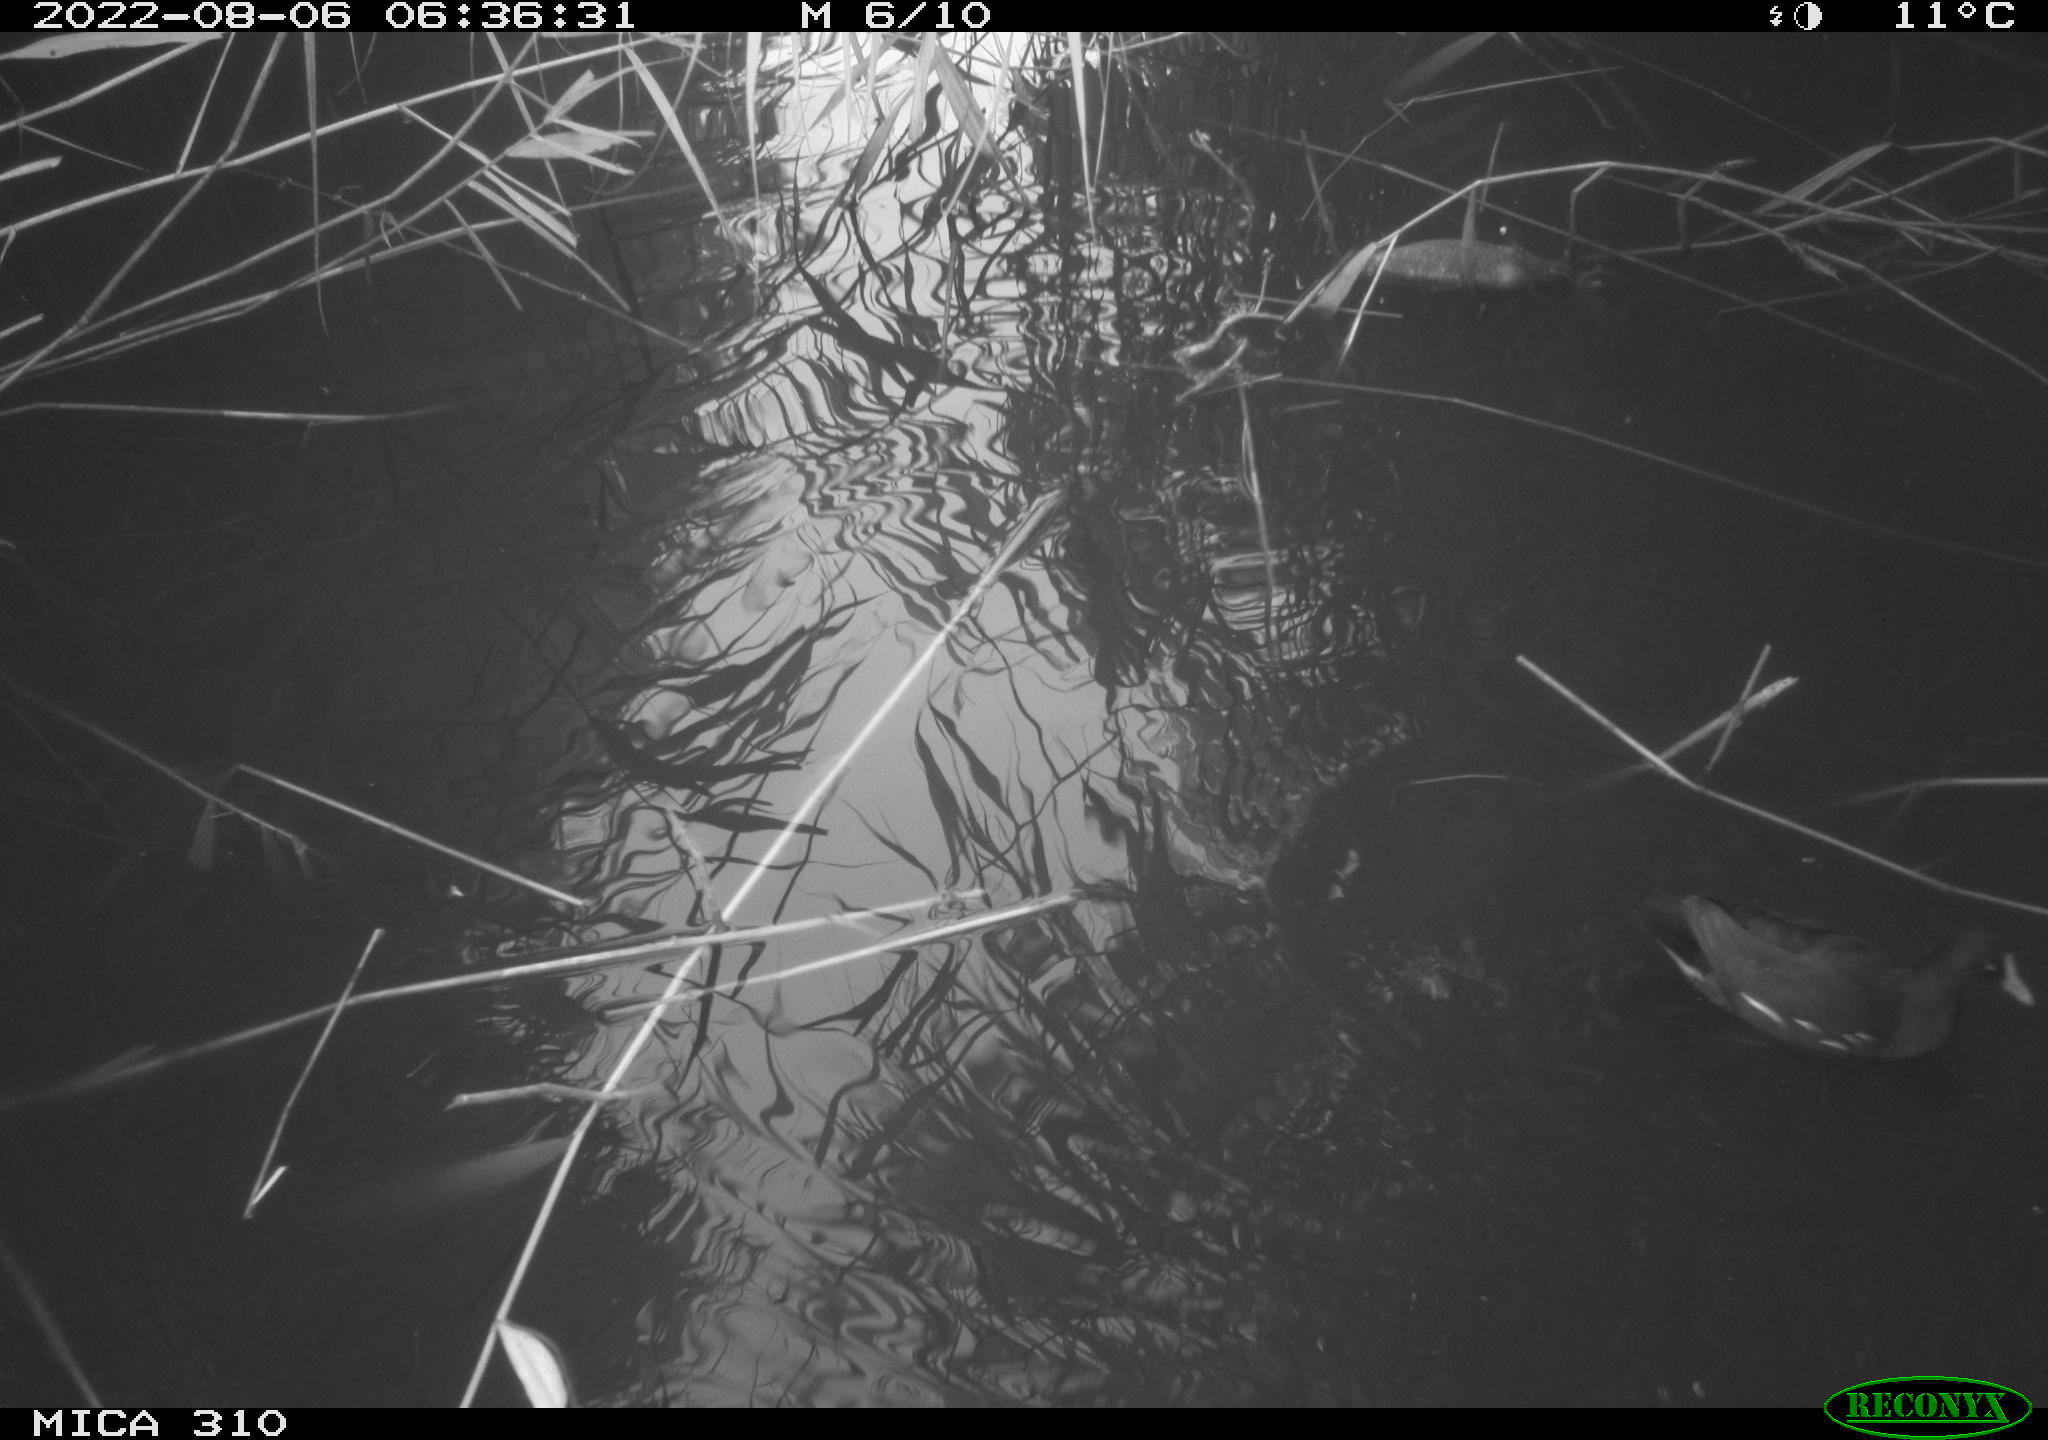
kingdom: Animalia
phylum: Chordata
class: Aves
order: Gruiformes
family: Rallidae
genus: Gallinula
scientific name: Gallinula chloropus
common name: Common moorhen
